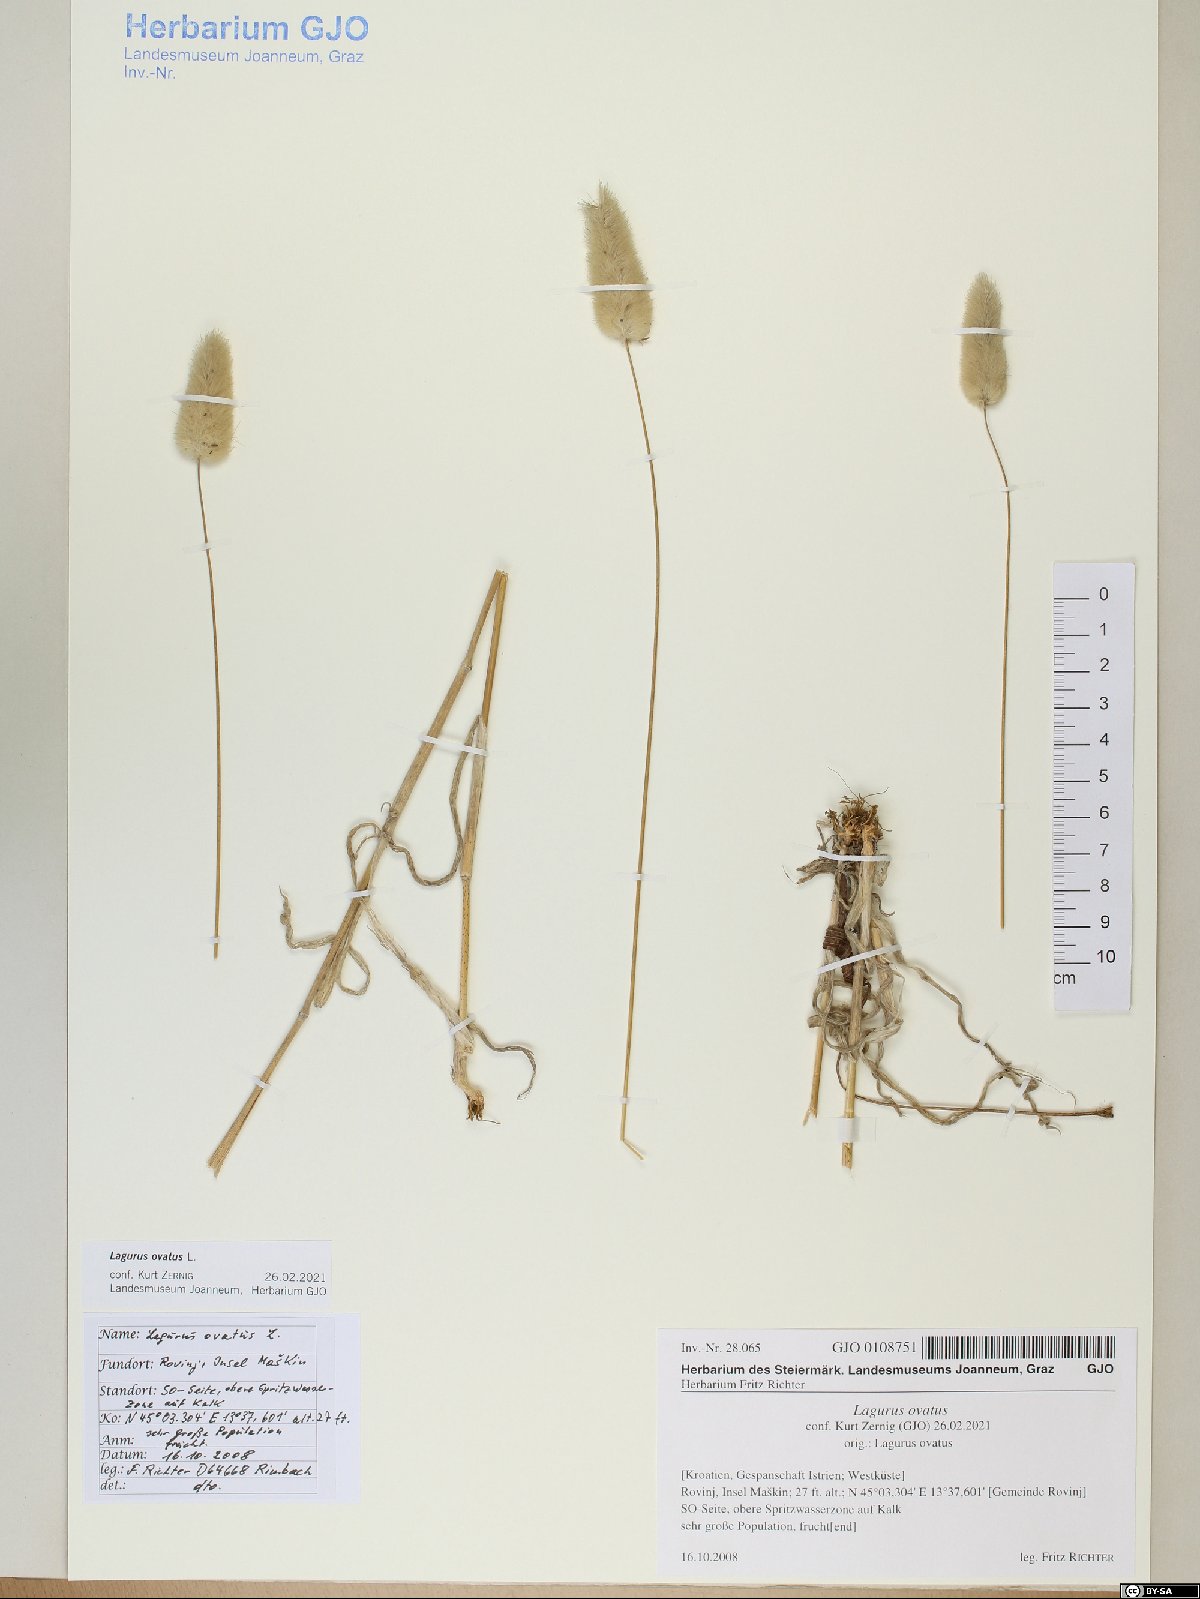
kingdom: Plantae
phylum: Tracheophyta
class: Liliopsida
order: Poales
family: Poaceae
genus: Lagurus
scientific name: Lagurus ovatus
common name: Hare's-tail
